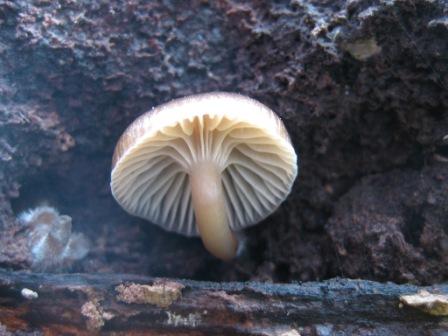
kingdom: Fungi
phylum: Basidiomycota
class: Agaricomycetes
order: Agaricales
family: Mycenaceae
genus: Mycena
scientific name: Mycena tintinnabulum
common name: vinter-huesvamp
